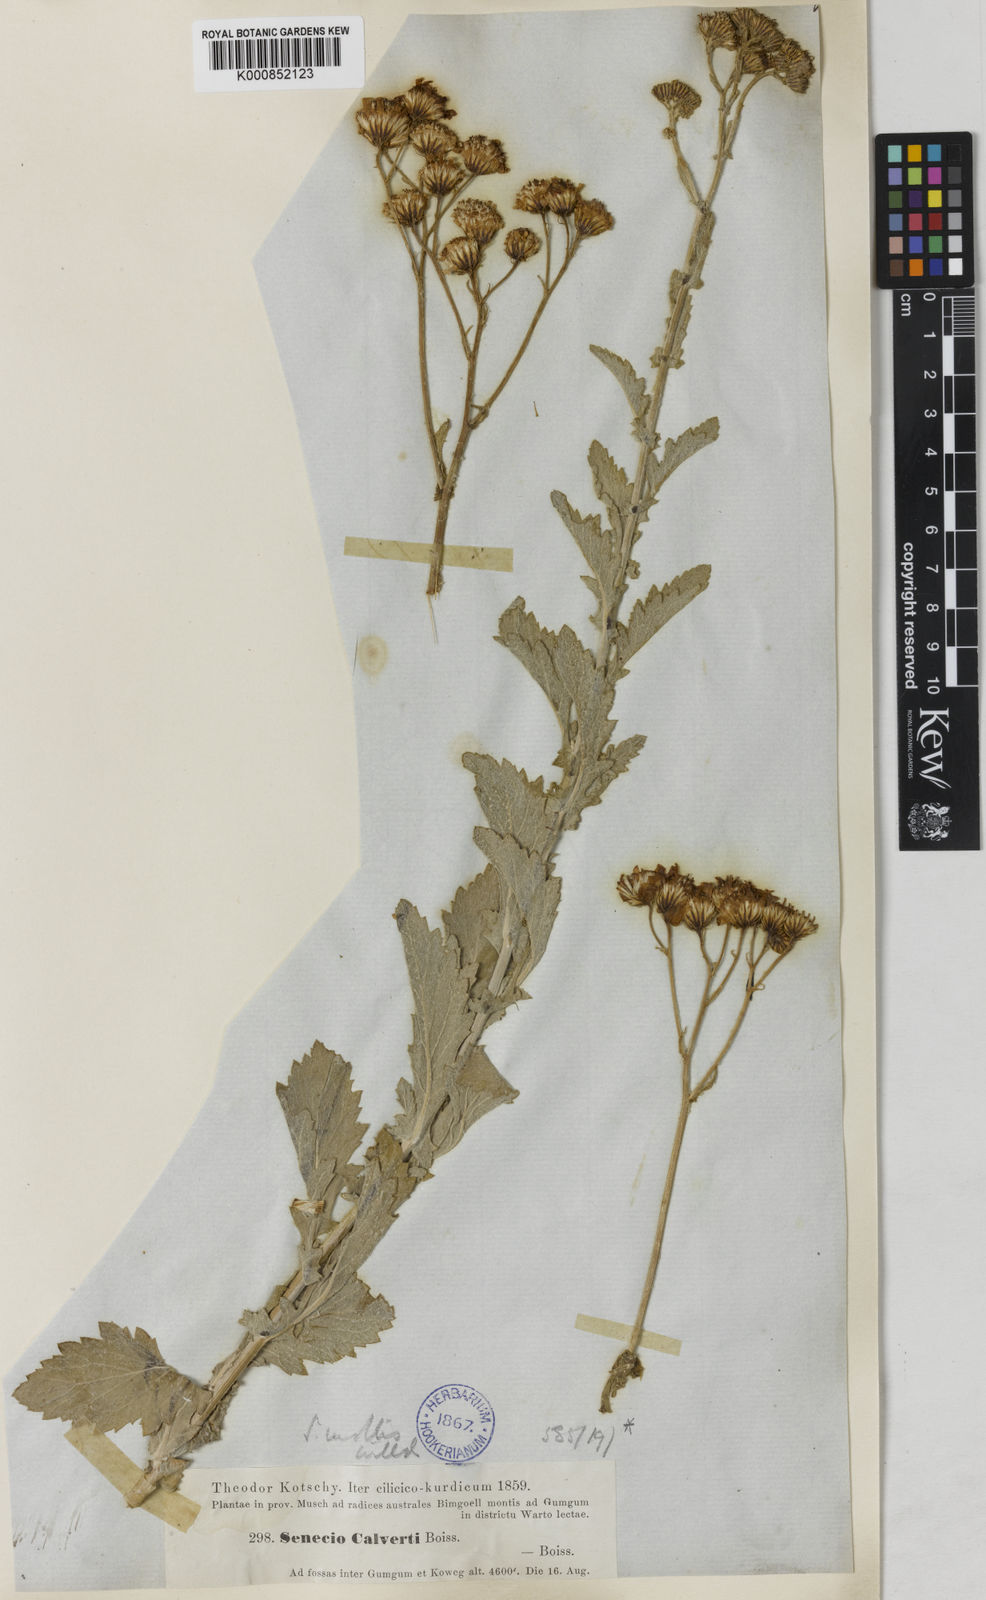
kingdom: Plantae
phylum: Tracheophyta
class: Magnoliopsida
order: Asterales
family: Asteraceae
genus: Jacobaea
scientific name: Jacobaea mollis
